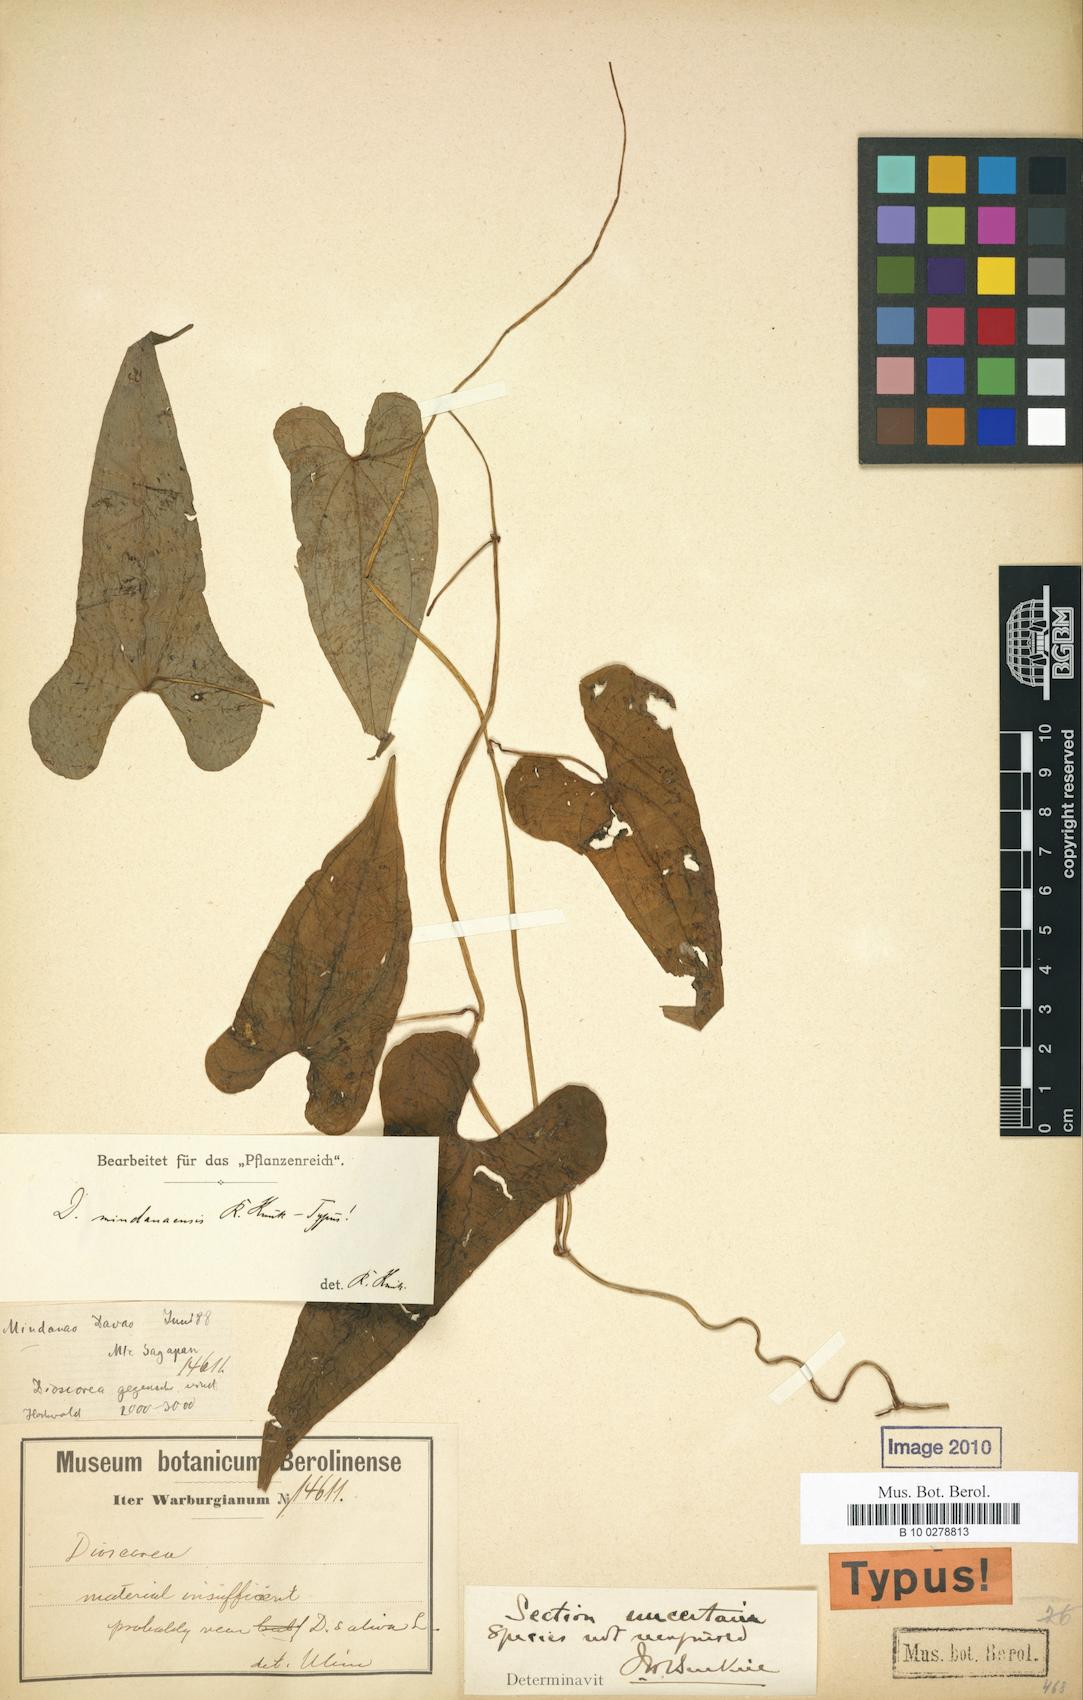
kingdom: Plantae
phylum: Tracheophyta
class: Liliopsida
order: Dioscoreales
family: Dioscoreaceae
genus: Dioscorea
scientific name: Dioscorea mindanaensis
